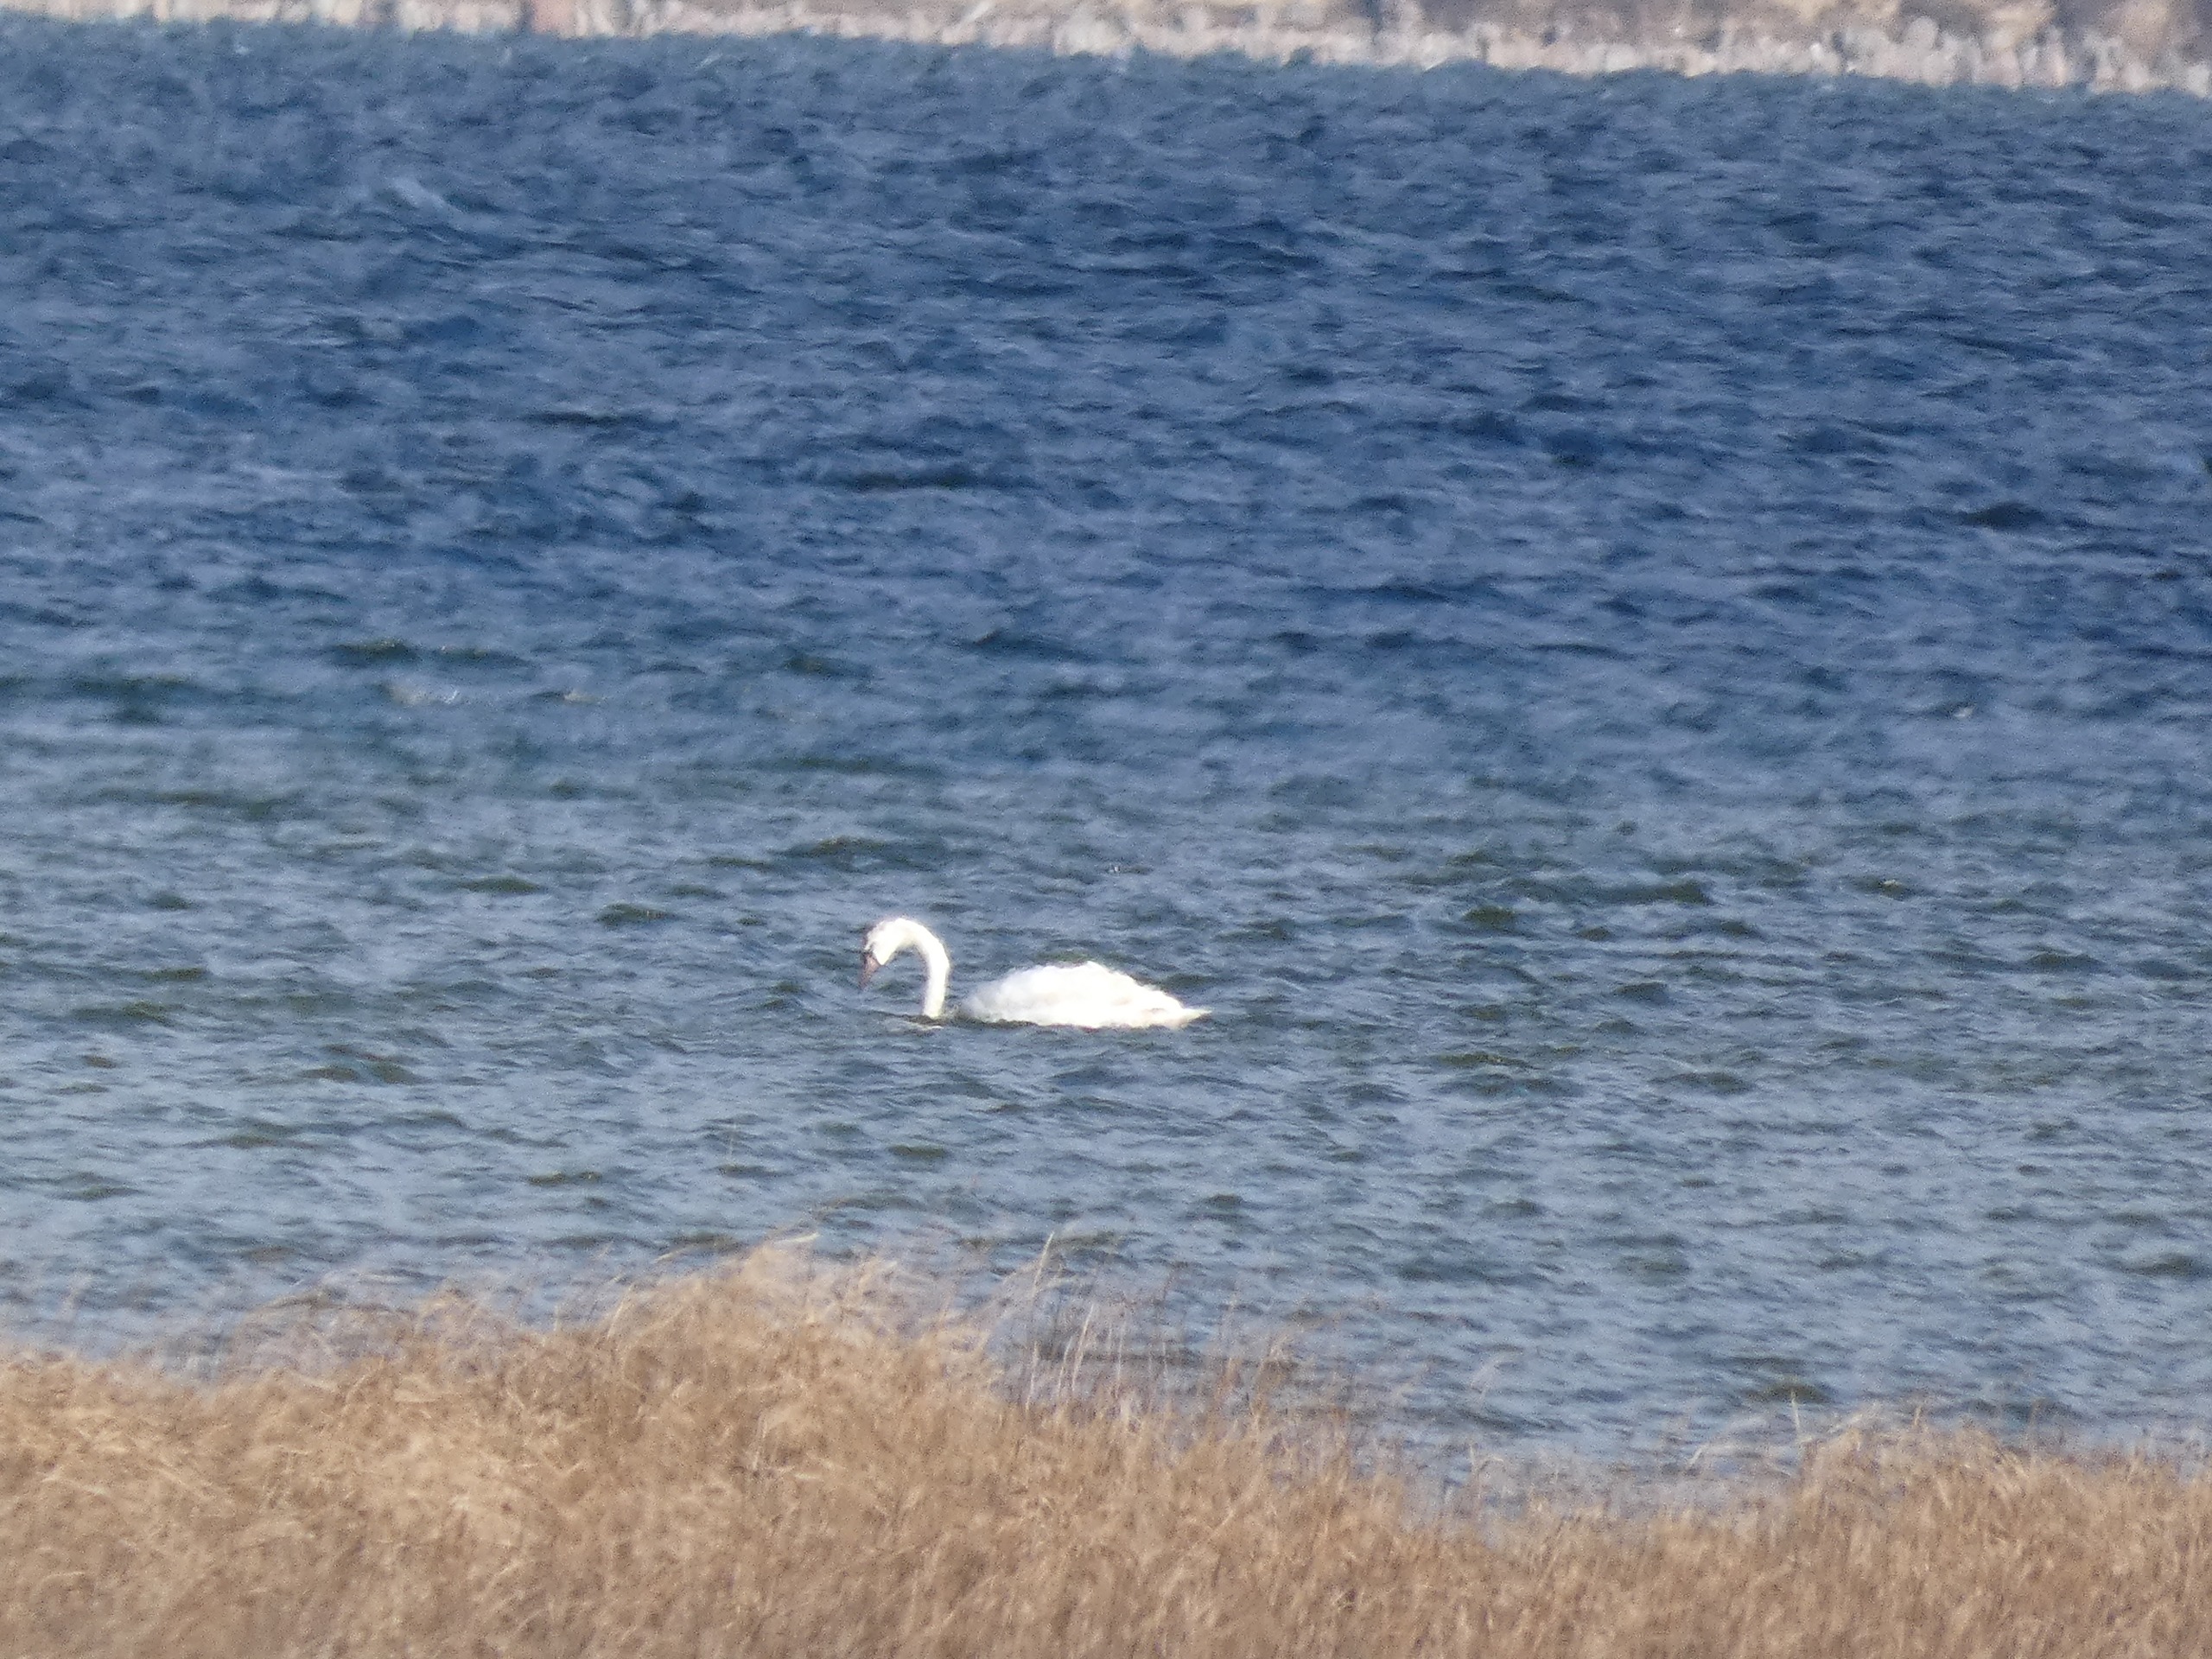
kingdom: Animalia
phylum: Chordata
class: Aves
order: Anseriformes
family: Anatidae
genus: Cygnus
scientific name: Cygnus olor
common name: Knopsvane
